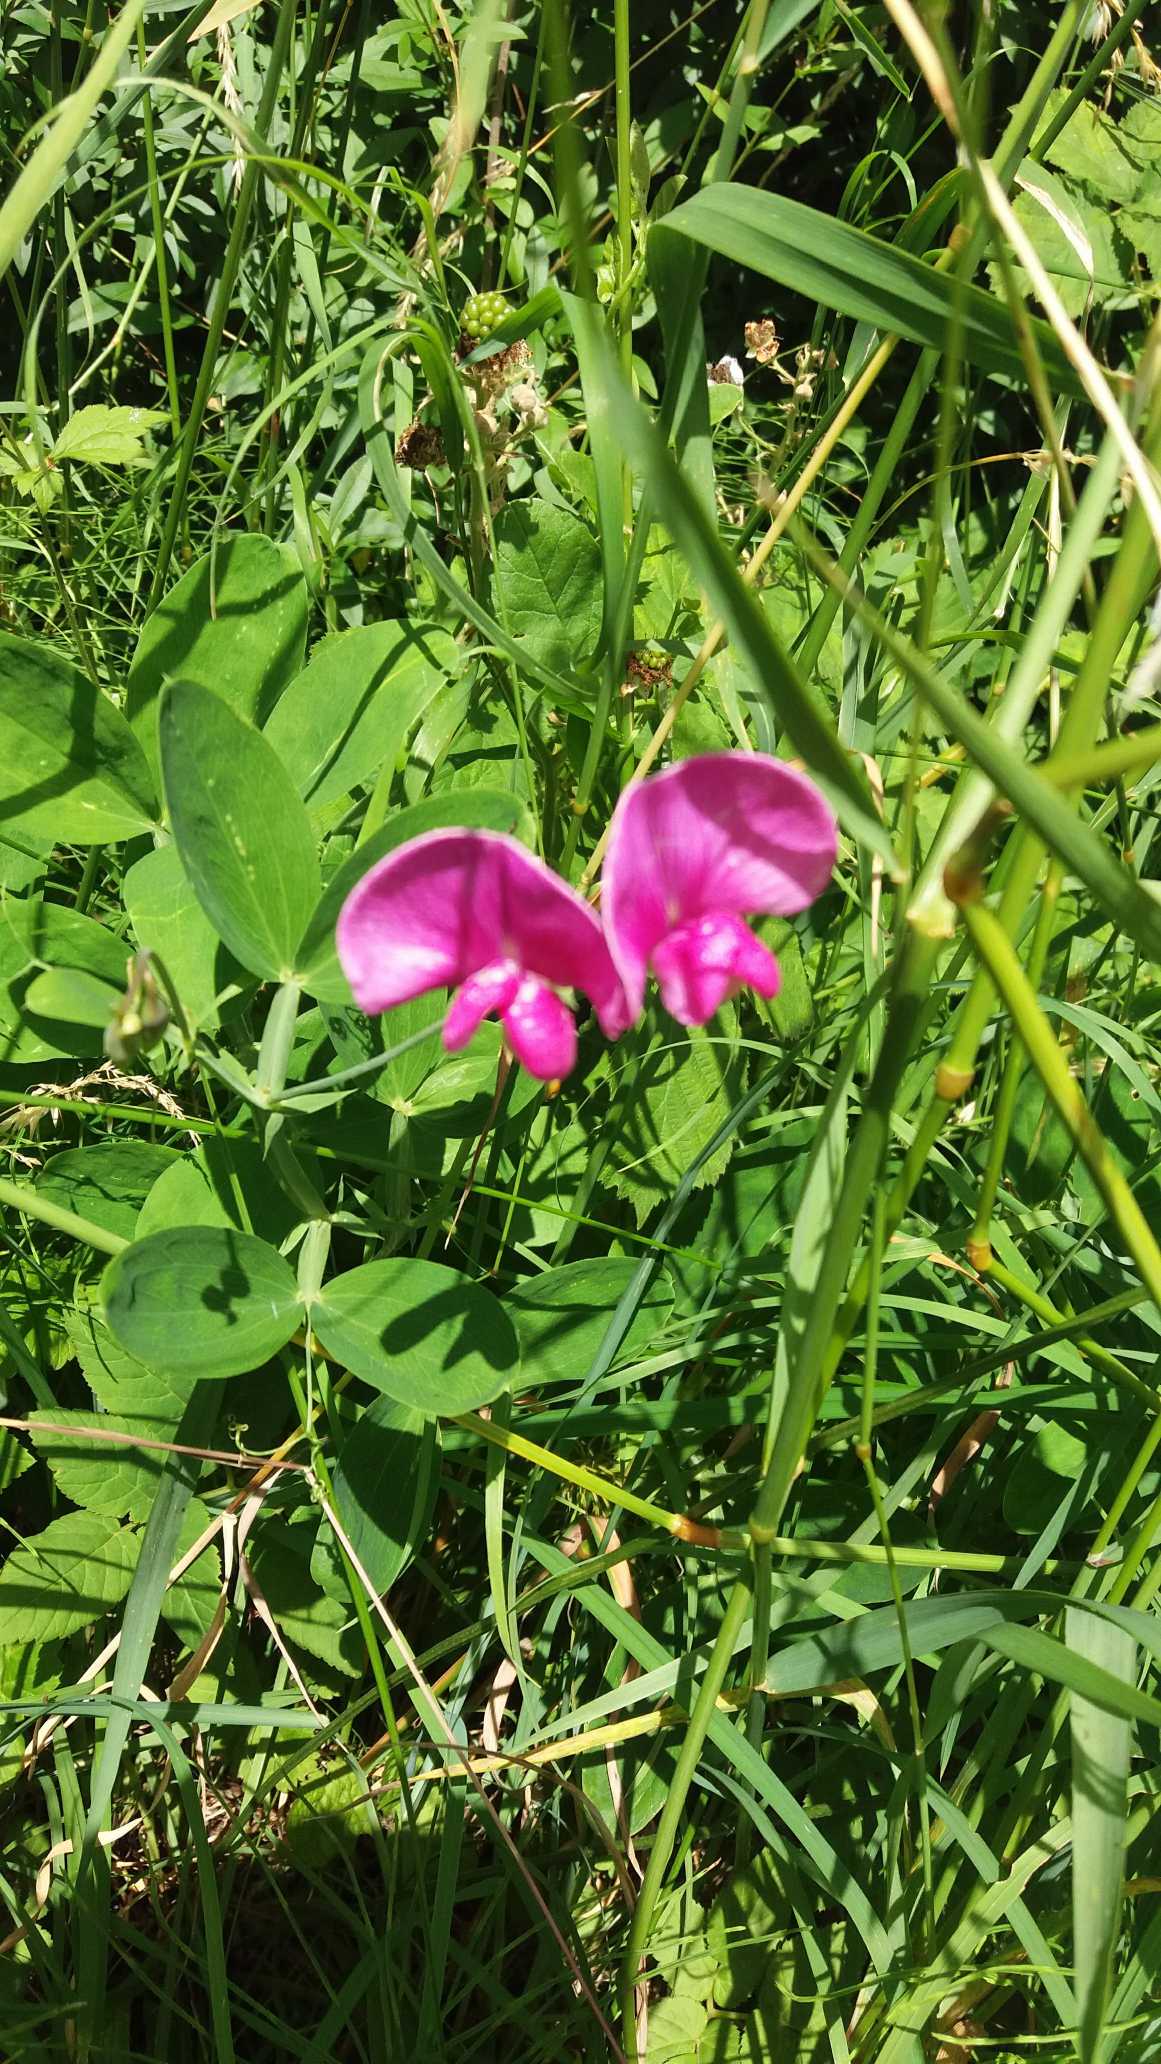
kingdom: Plantae
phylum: Tracheophyta
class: Magnoliopsida
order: Fabales
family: Fabaceae
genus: Lathyrus
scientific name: Lathyrus latifolius
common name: Flerårig ærteblomst
